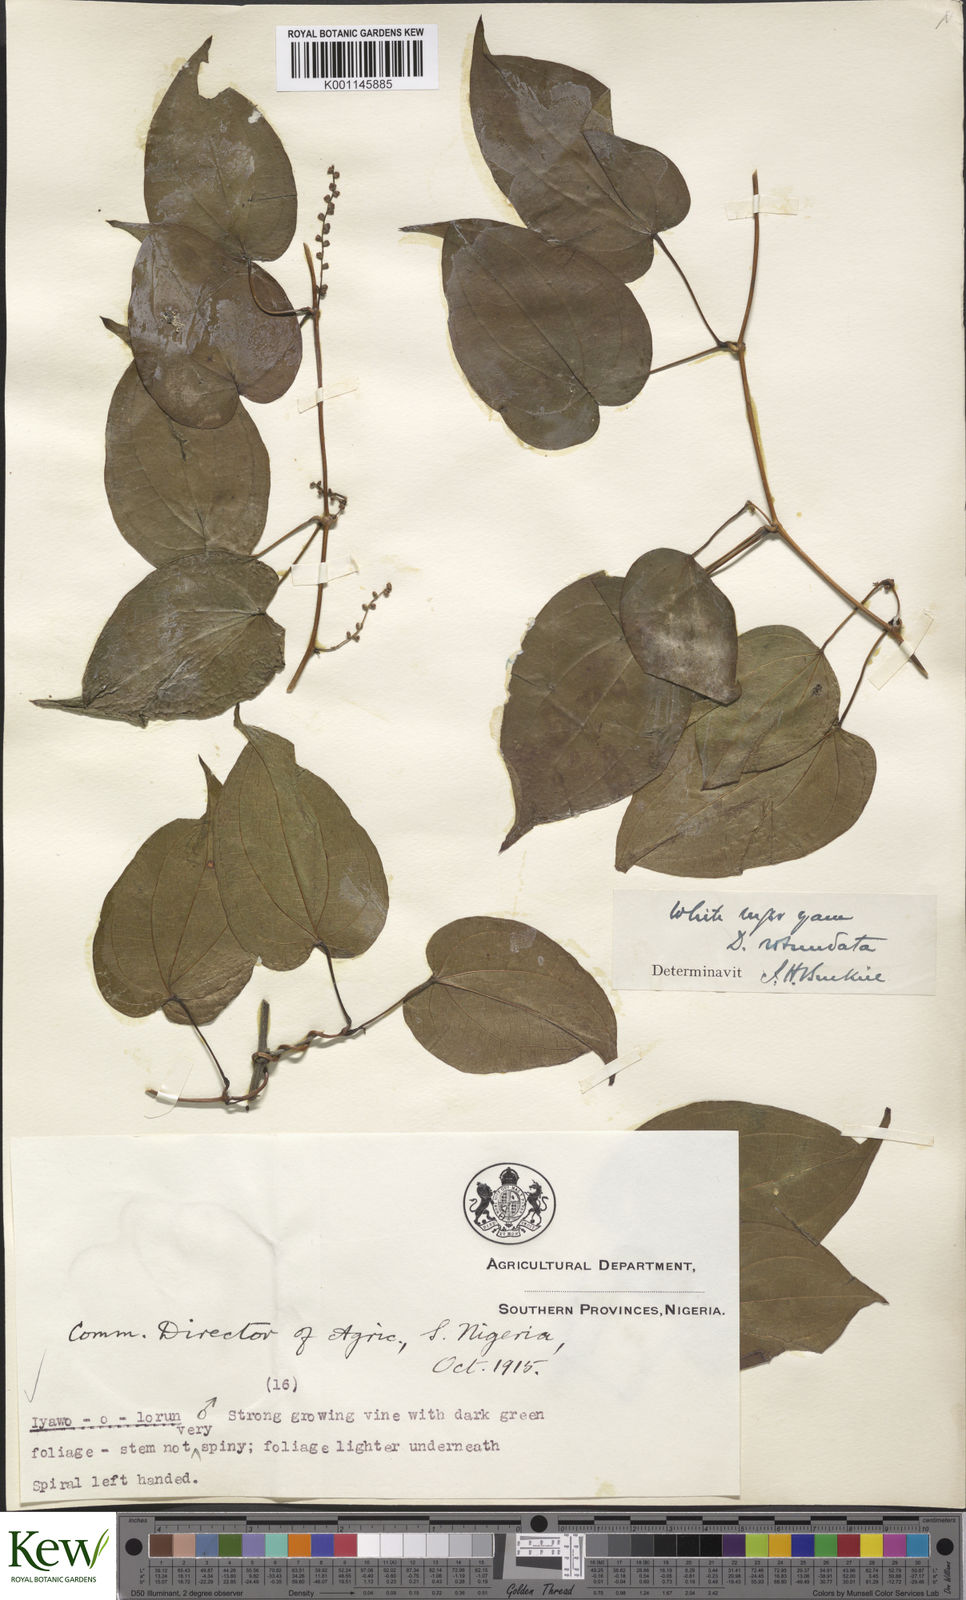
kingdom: Plantae
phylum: Tracheophyta
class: Liliopsida
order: Dioscoreales
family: Dioscoreaceae
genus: Dioscorea
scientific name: Dioscorea cayenensis
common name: Attoto yam
